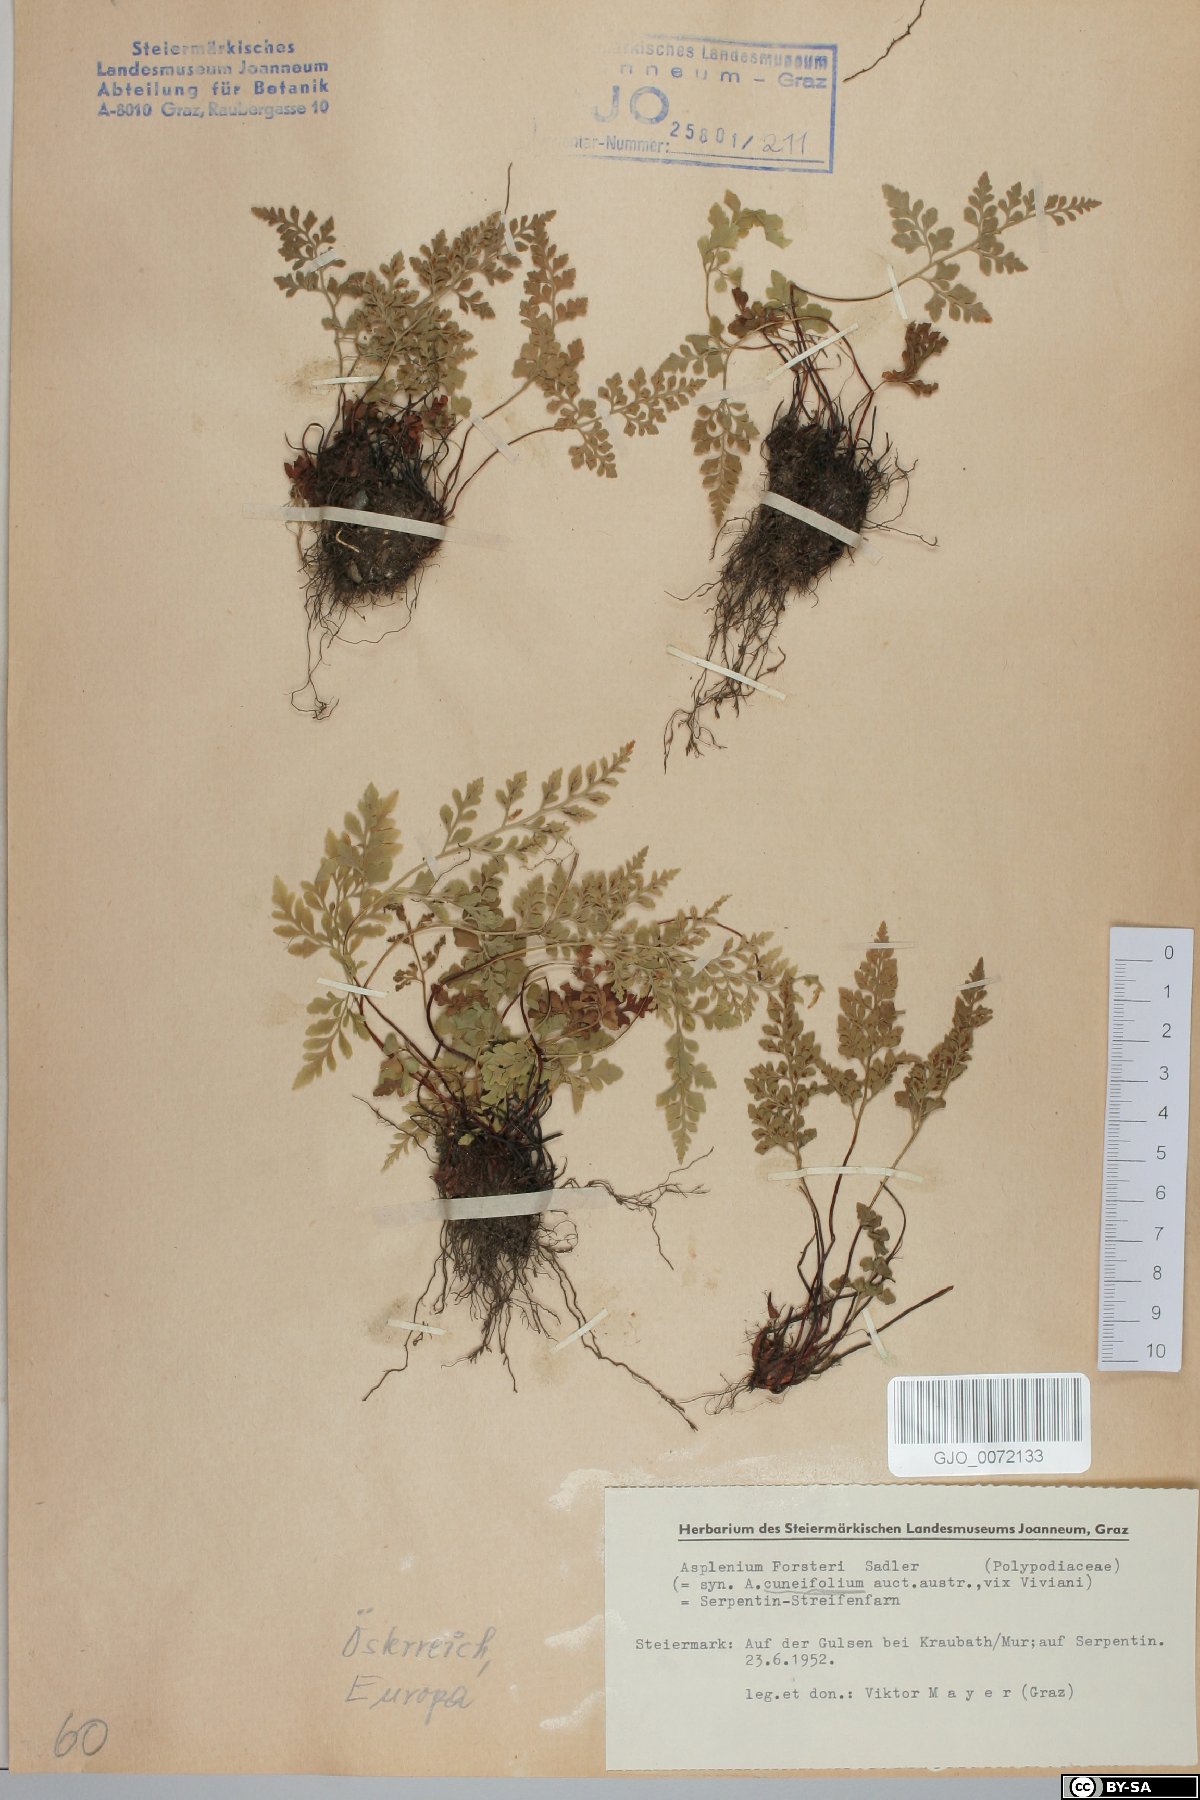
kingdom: Plantae
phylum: Tracheophyta
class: Polypodiopsida
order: Polypodiales
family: Aspleniaceae
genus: Asplenium
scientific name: Asplenium cuneifolium
